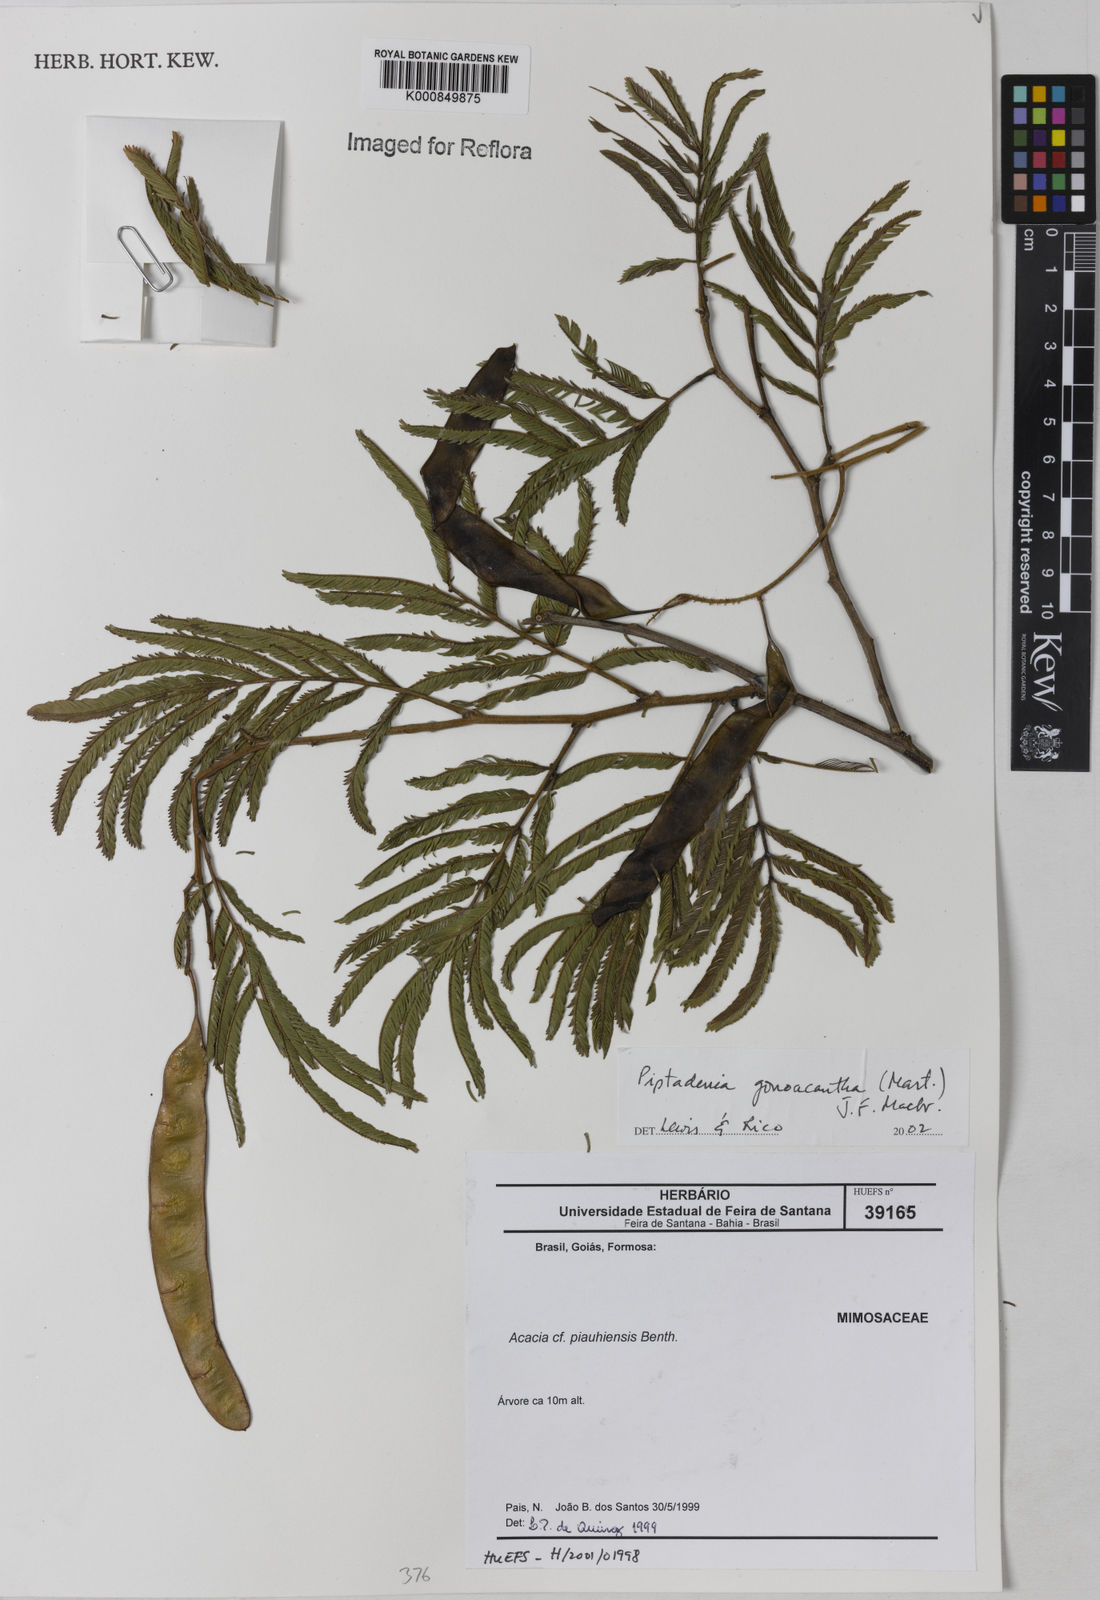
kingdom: Plantae
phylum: Tracheophyta
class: Magnoliopsida
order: Fabales
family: Fabaceae
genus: Piptadenia
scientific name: Piptadenia gonoacantha
